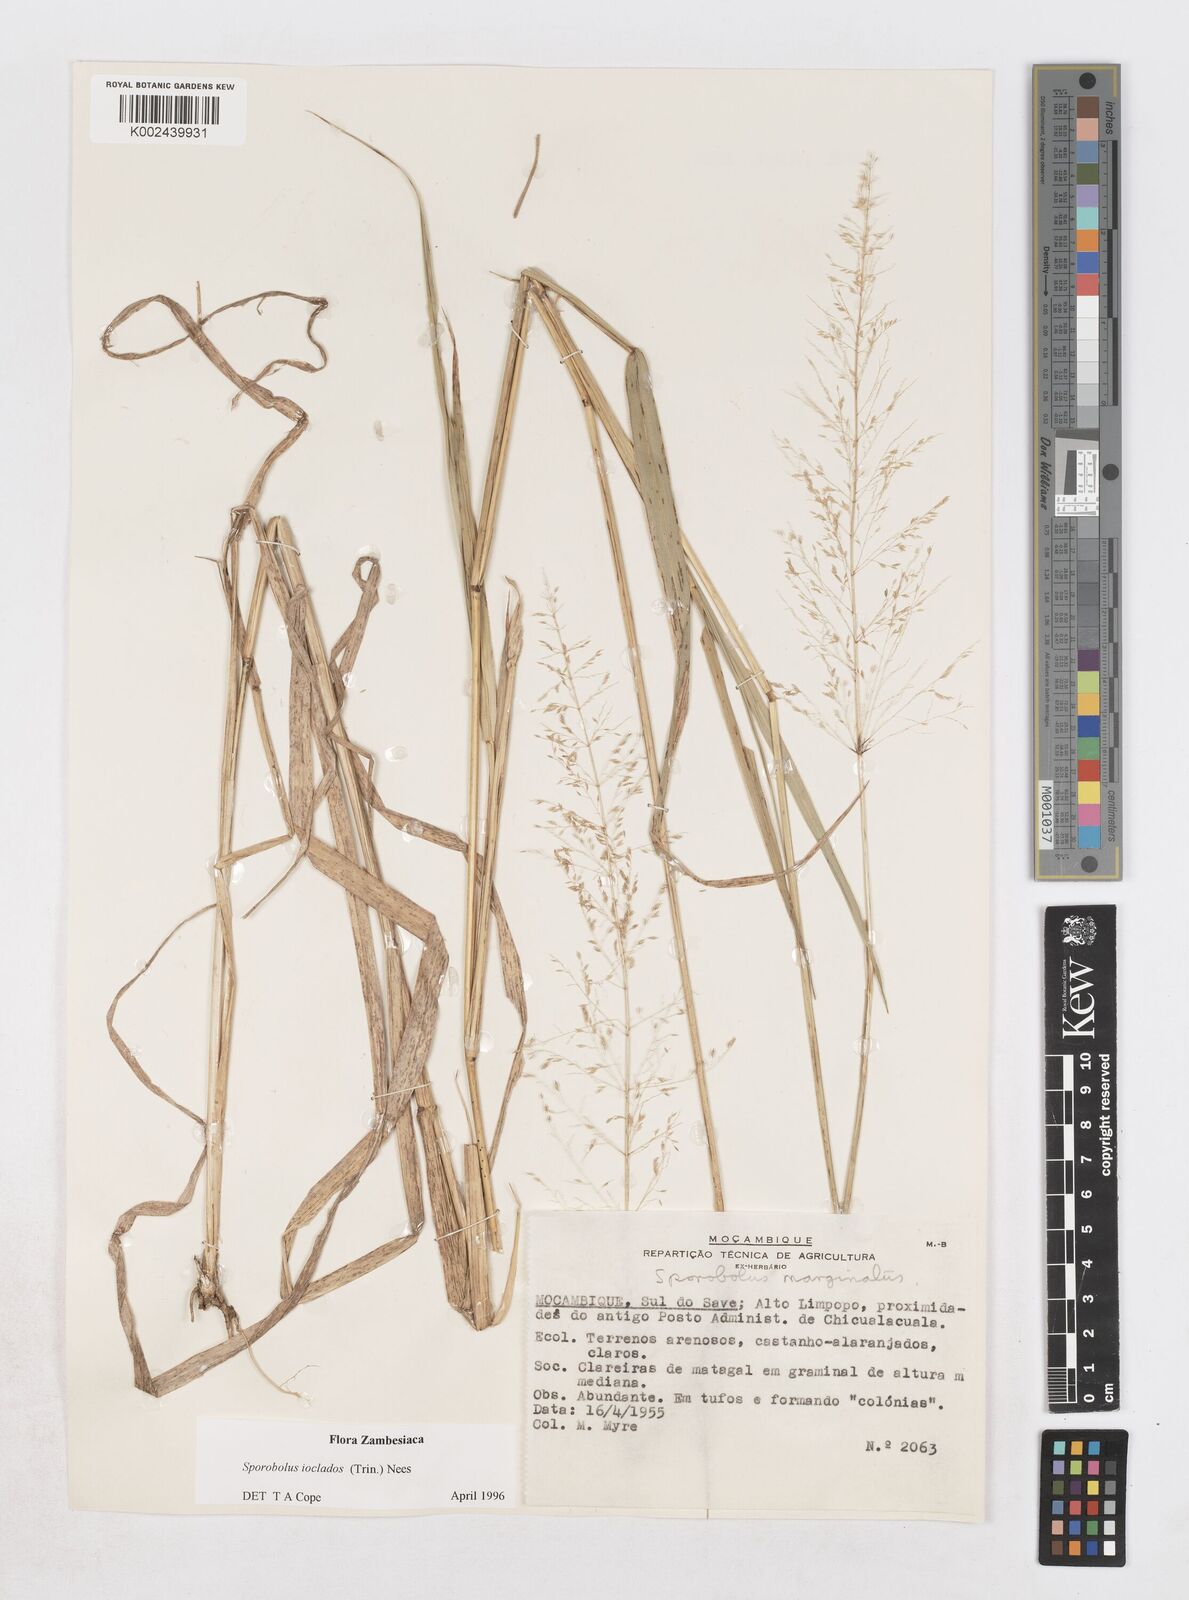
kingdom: Plantae
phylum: Tracheophyta
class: Liliopsida
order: Poales
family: Poaceae
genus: Sporobolus
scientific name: Sporobolus ioclados
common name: Pan dropseed
